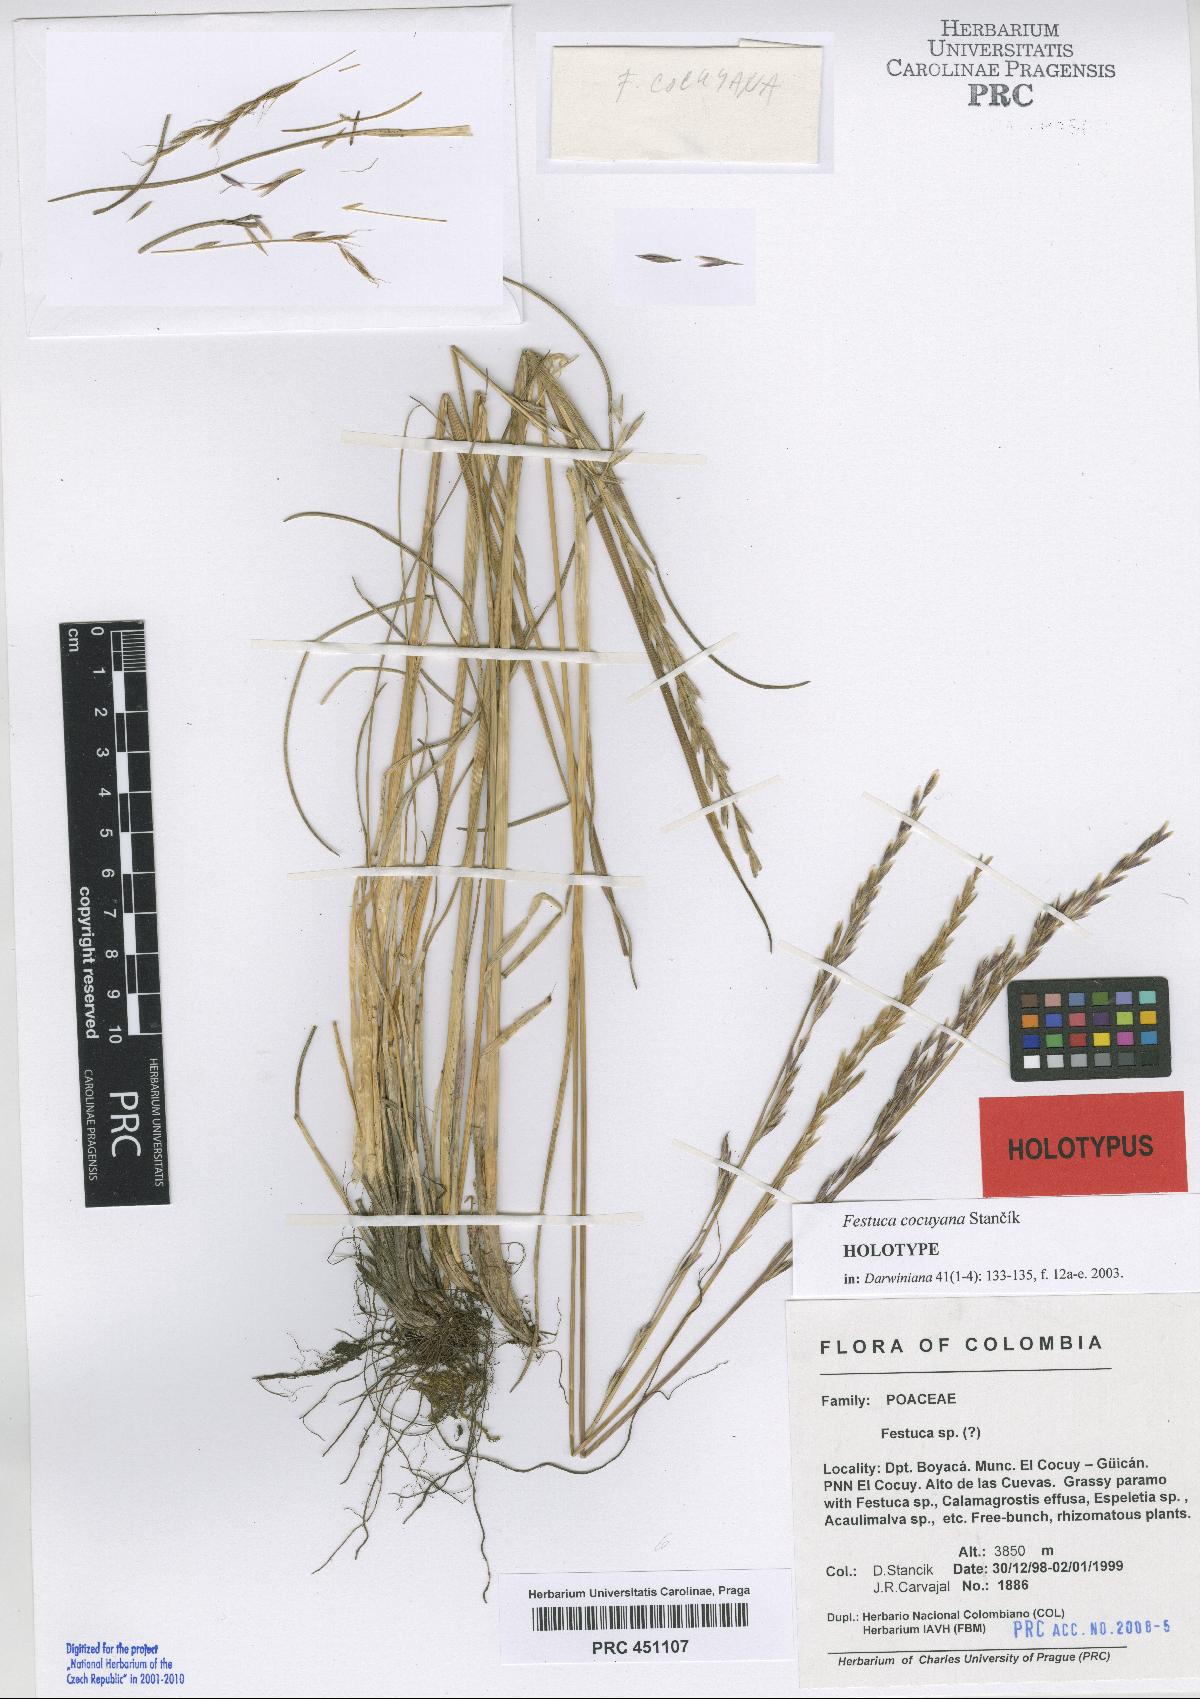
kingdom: Plantae
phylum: Tracheophyta
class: Liliopsida
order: Poales
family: Poaceae
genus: Festuca
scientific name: Festuca cocuyana
